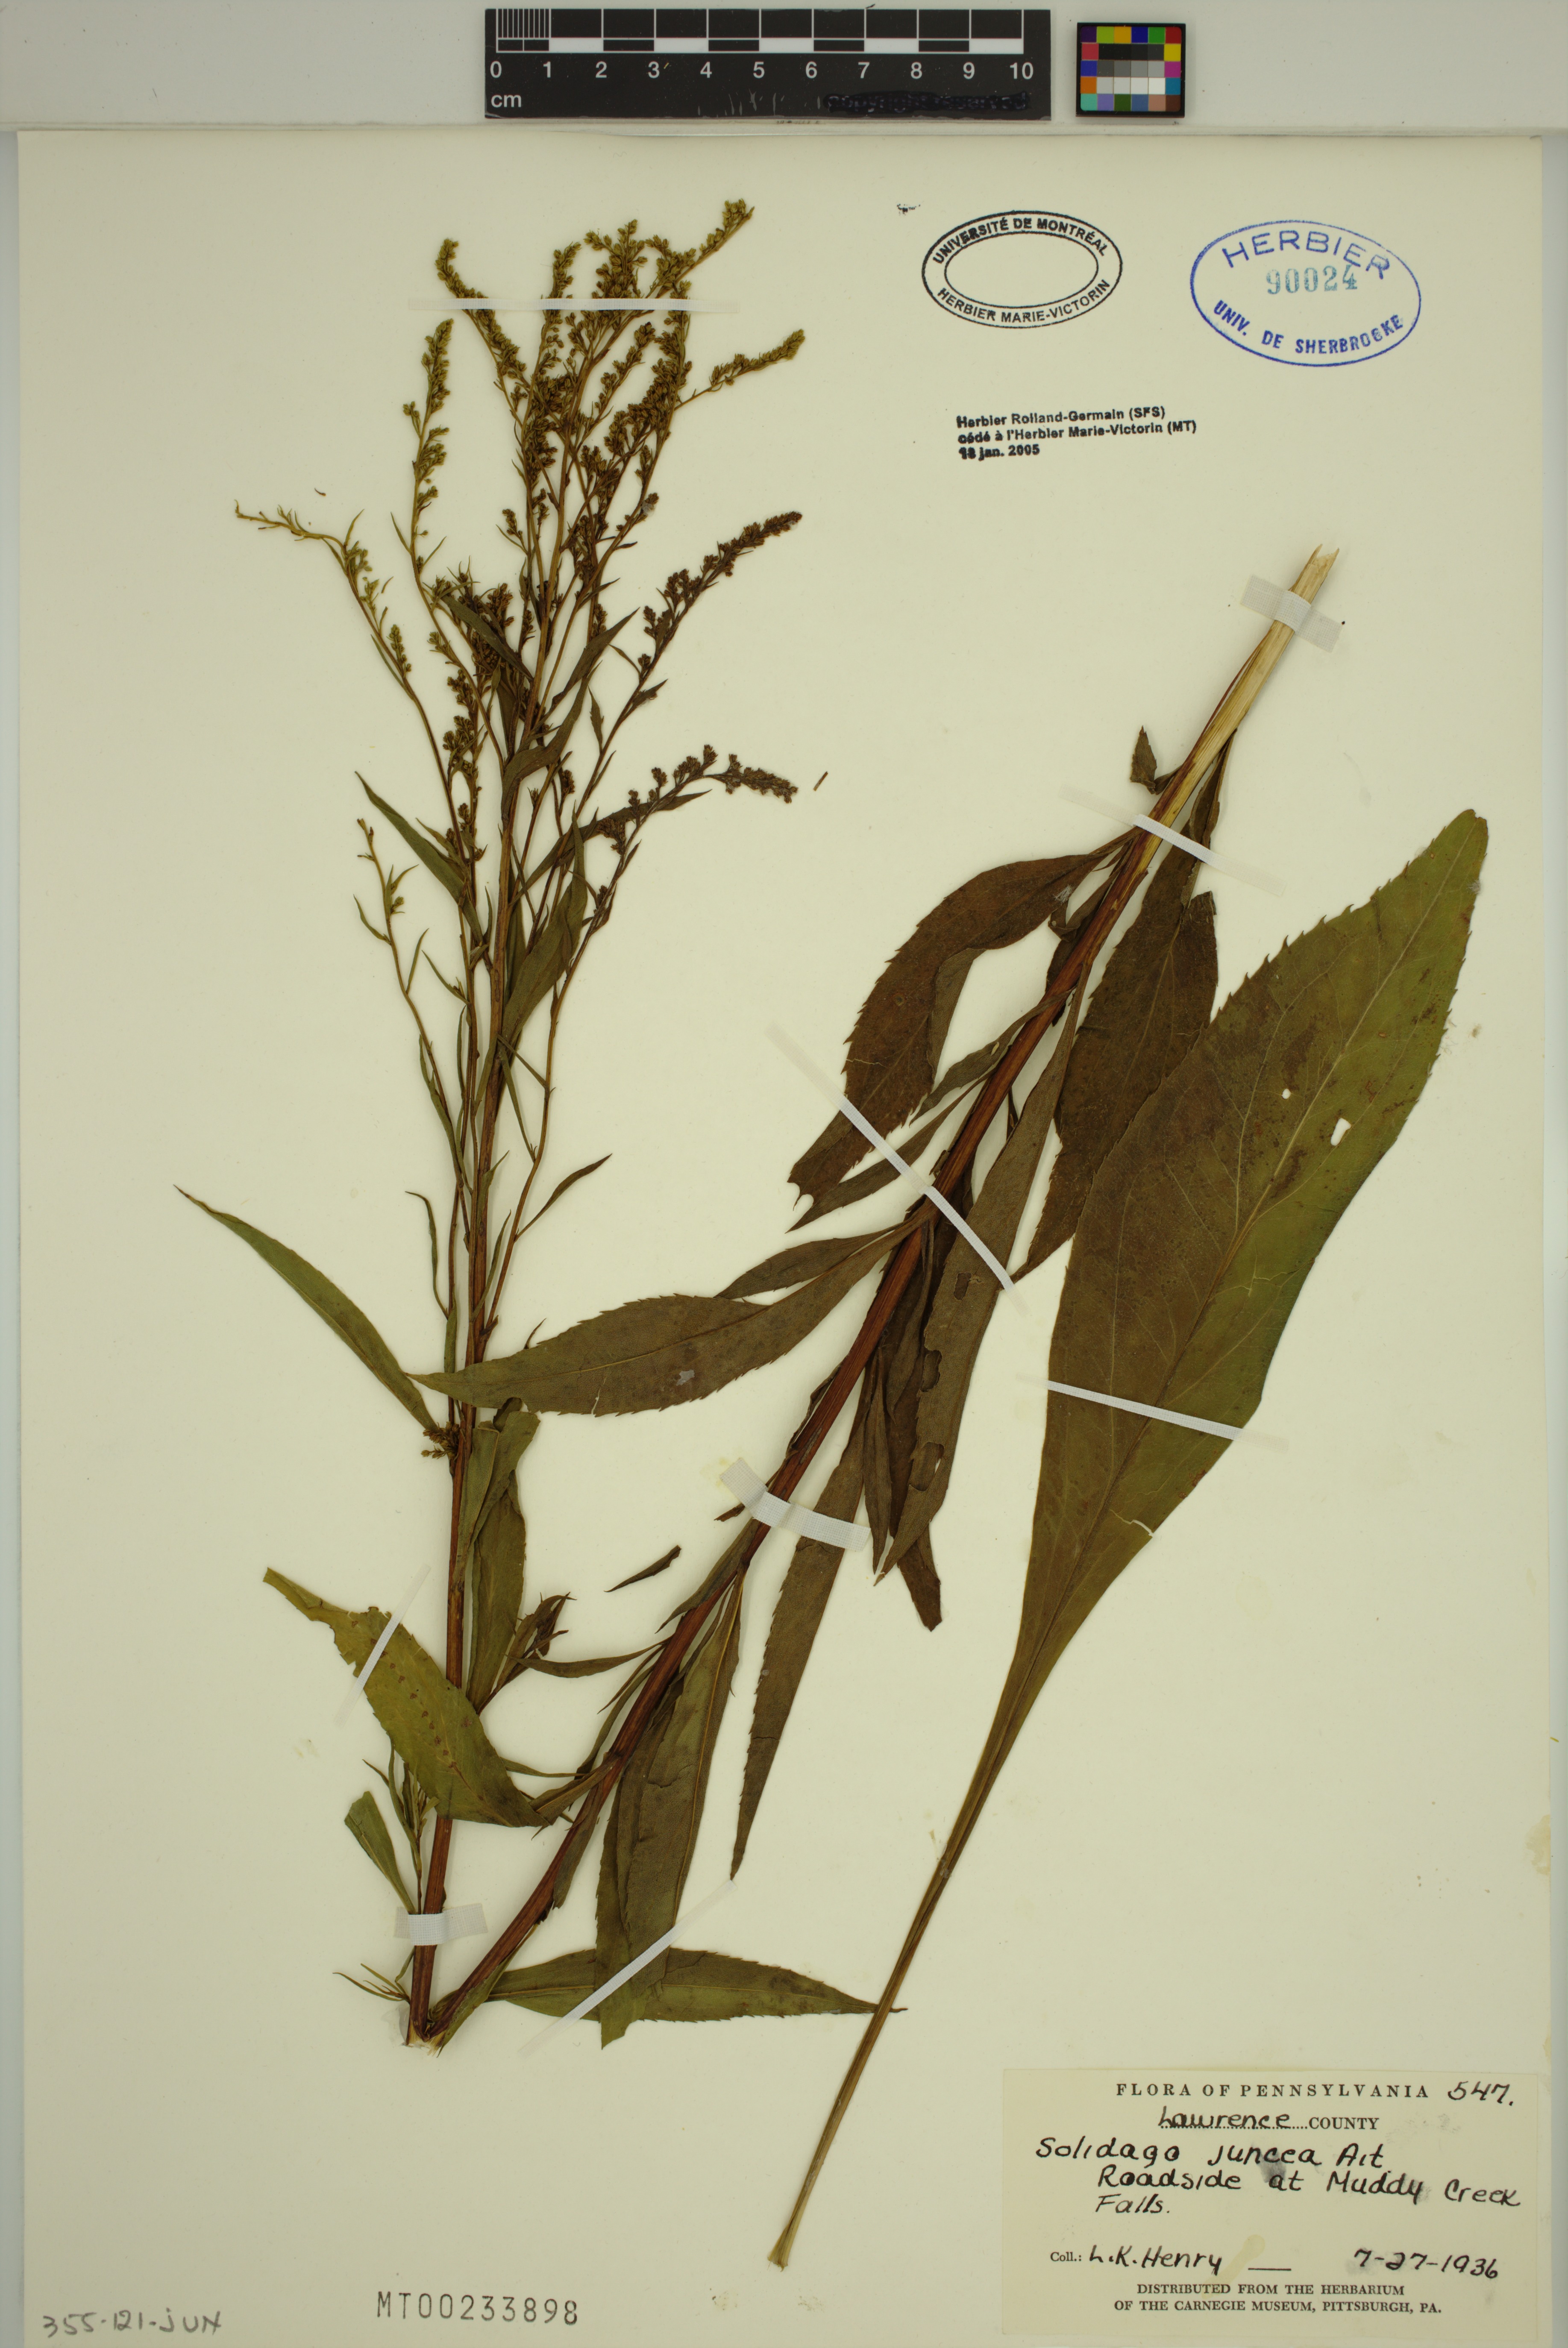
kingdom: Plantae
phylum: Tracheophyta
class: Magnoliopsida
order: Asterales
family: Asteraceae
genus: Solidago
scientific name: Solidago juncea
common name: Early goldenrod
